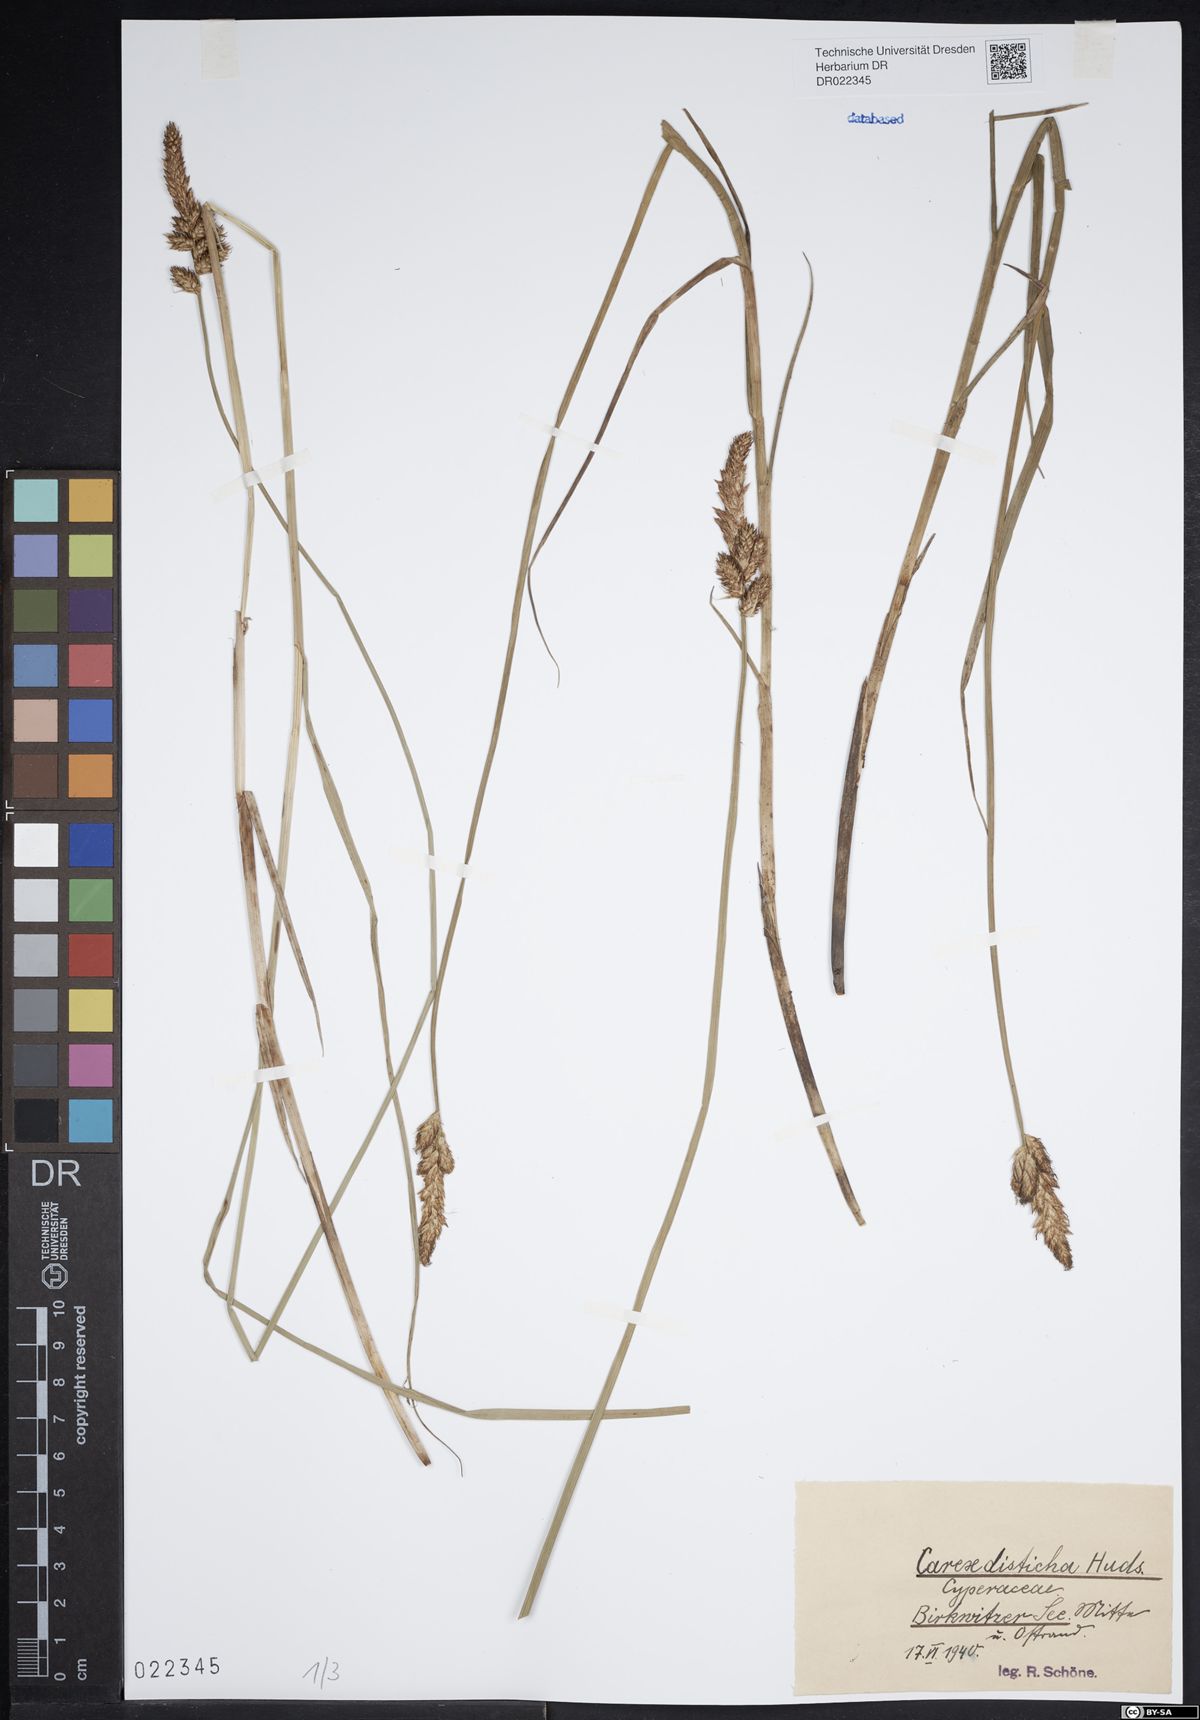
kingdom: Plantae
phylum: Tracheophyta
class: Liliopsida
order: Poales
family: Cyperaceae
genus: Carex
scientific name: Carex disticha
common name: Brown sedge
